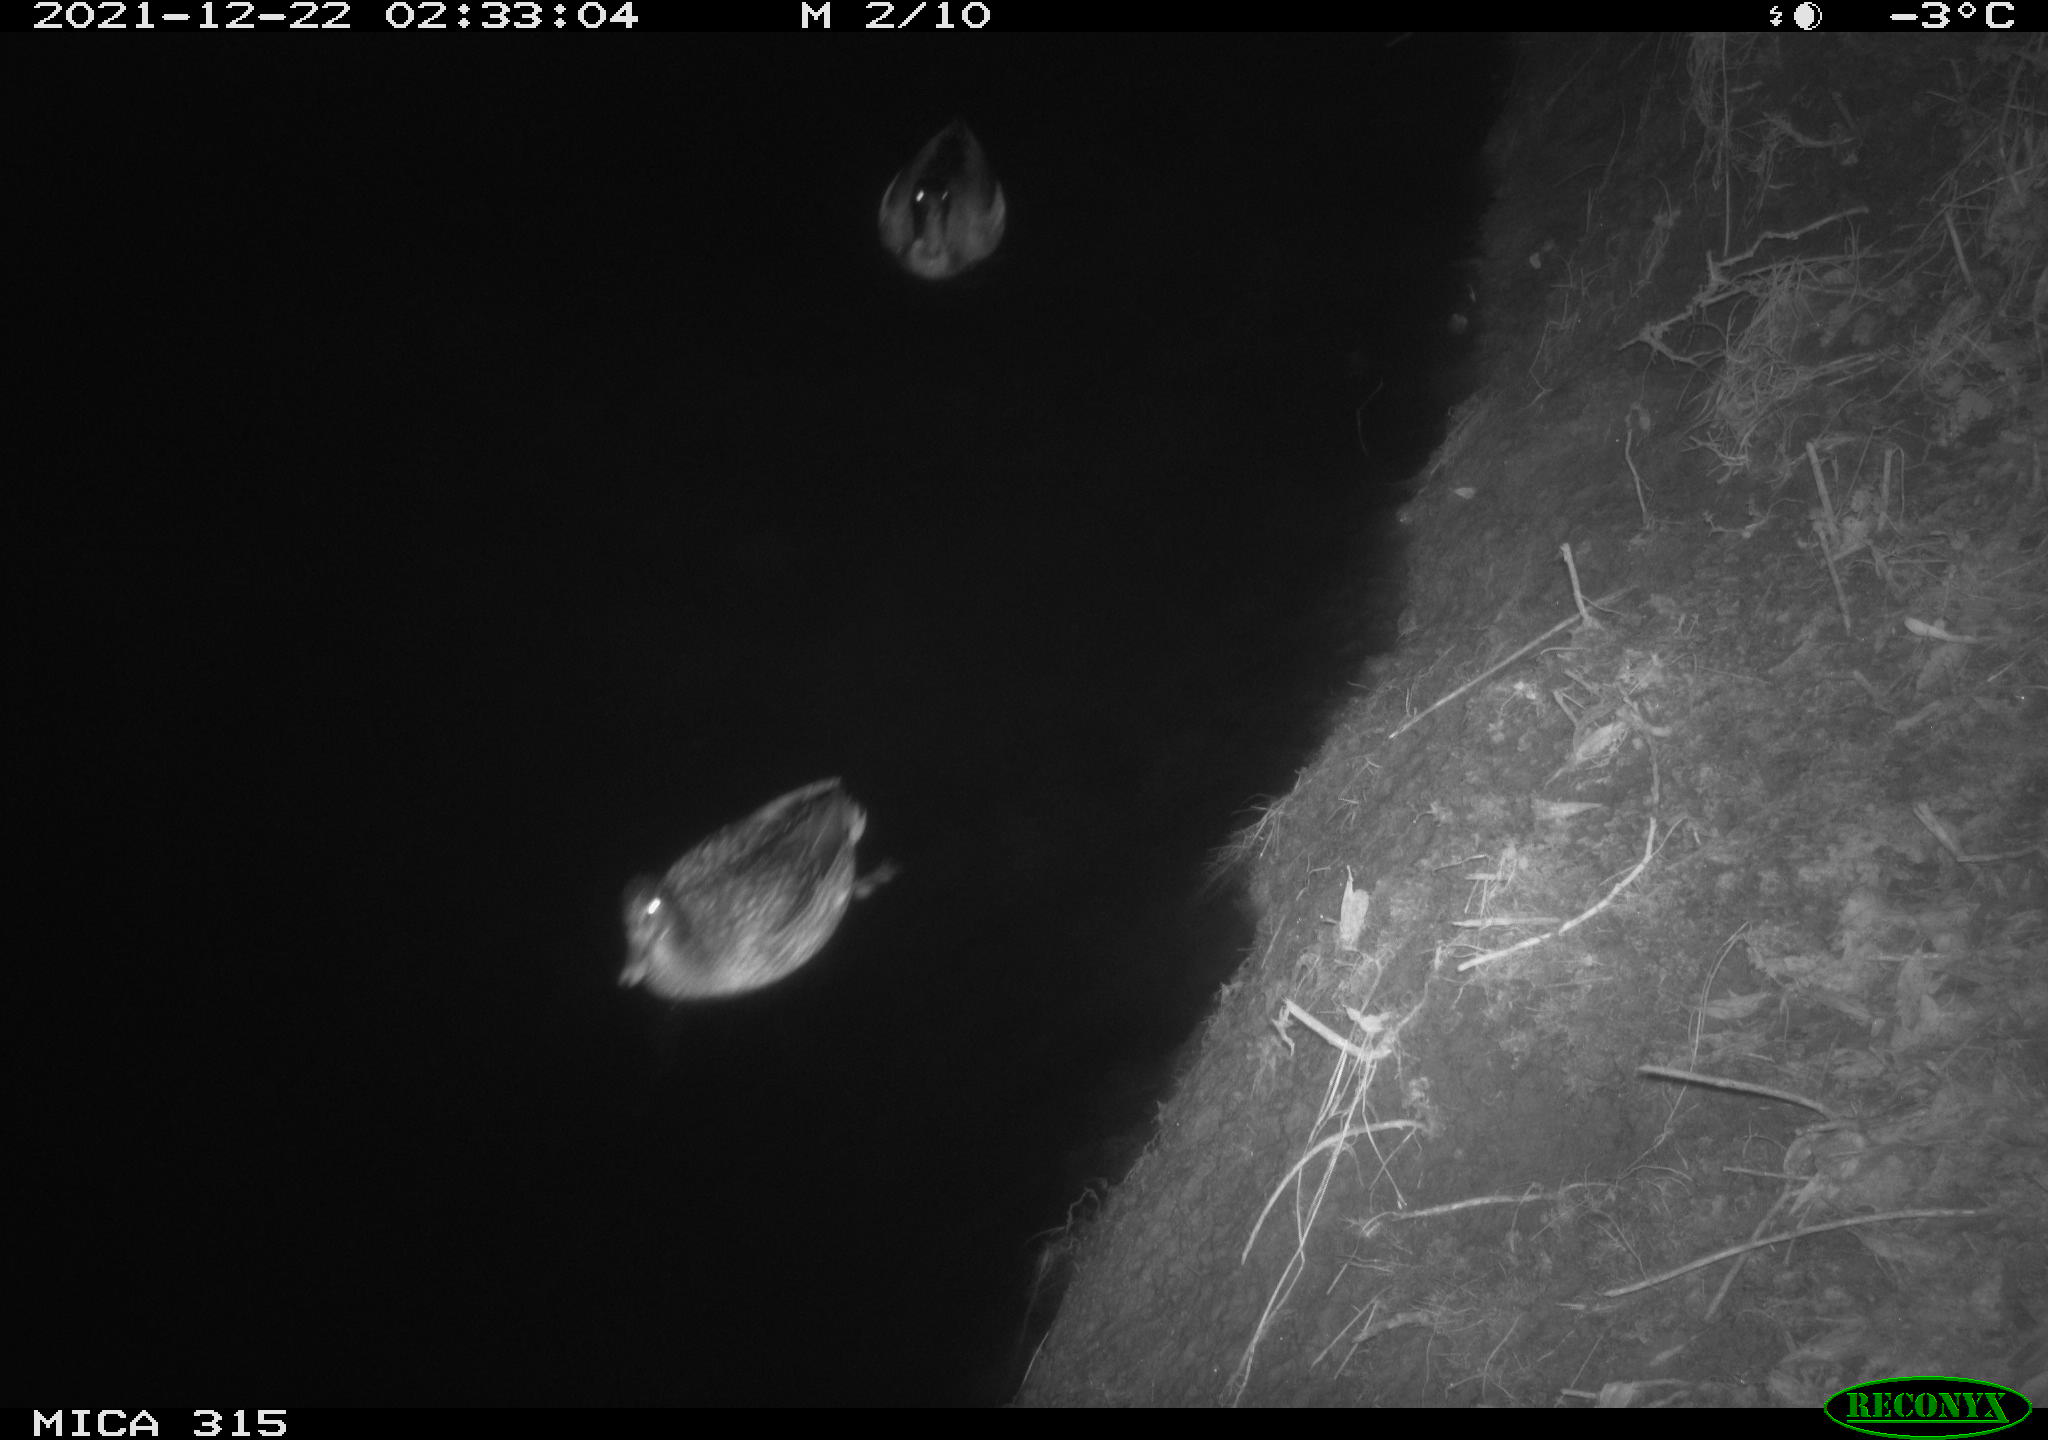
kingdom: Animalia
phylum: Chordata
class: Aves
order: Anseriformes
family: Anatidae
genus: Anas
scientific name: Anas
